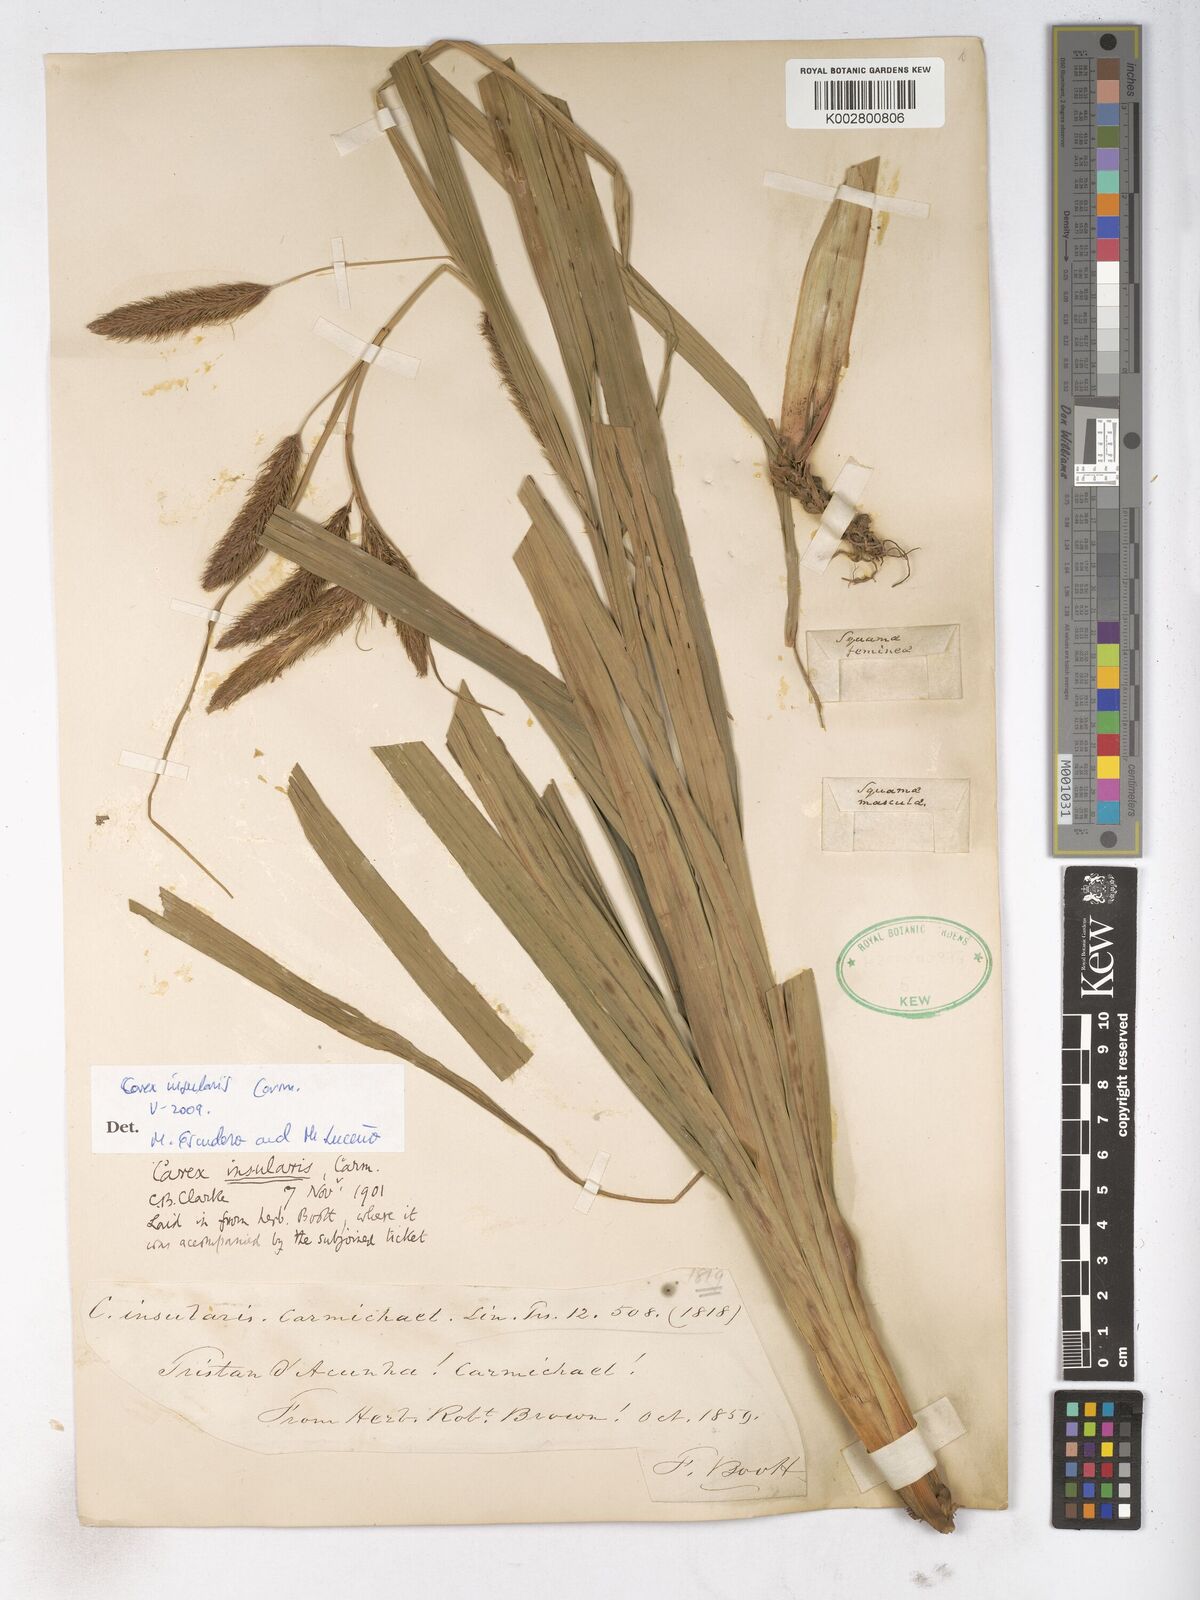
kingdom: Plantae
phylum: Tracheophyta
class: Liliopsida
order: Poales
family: Cyperaceae
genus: Carex
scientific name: Carex insularis
